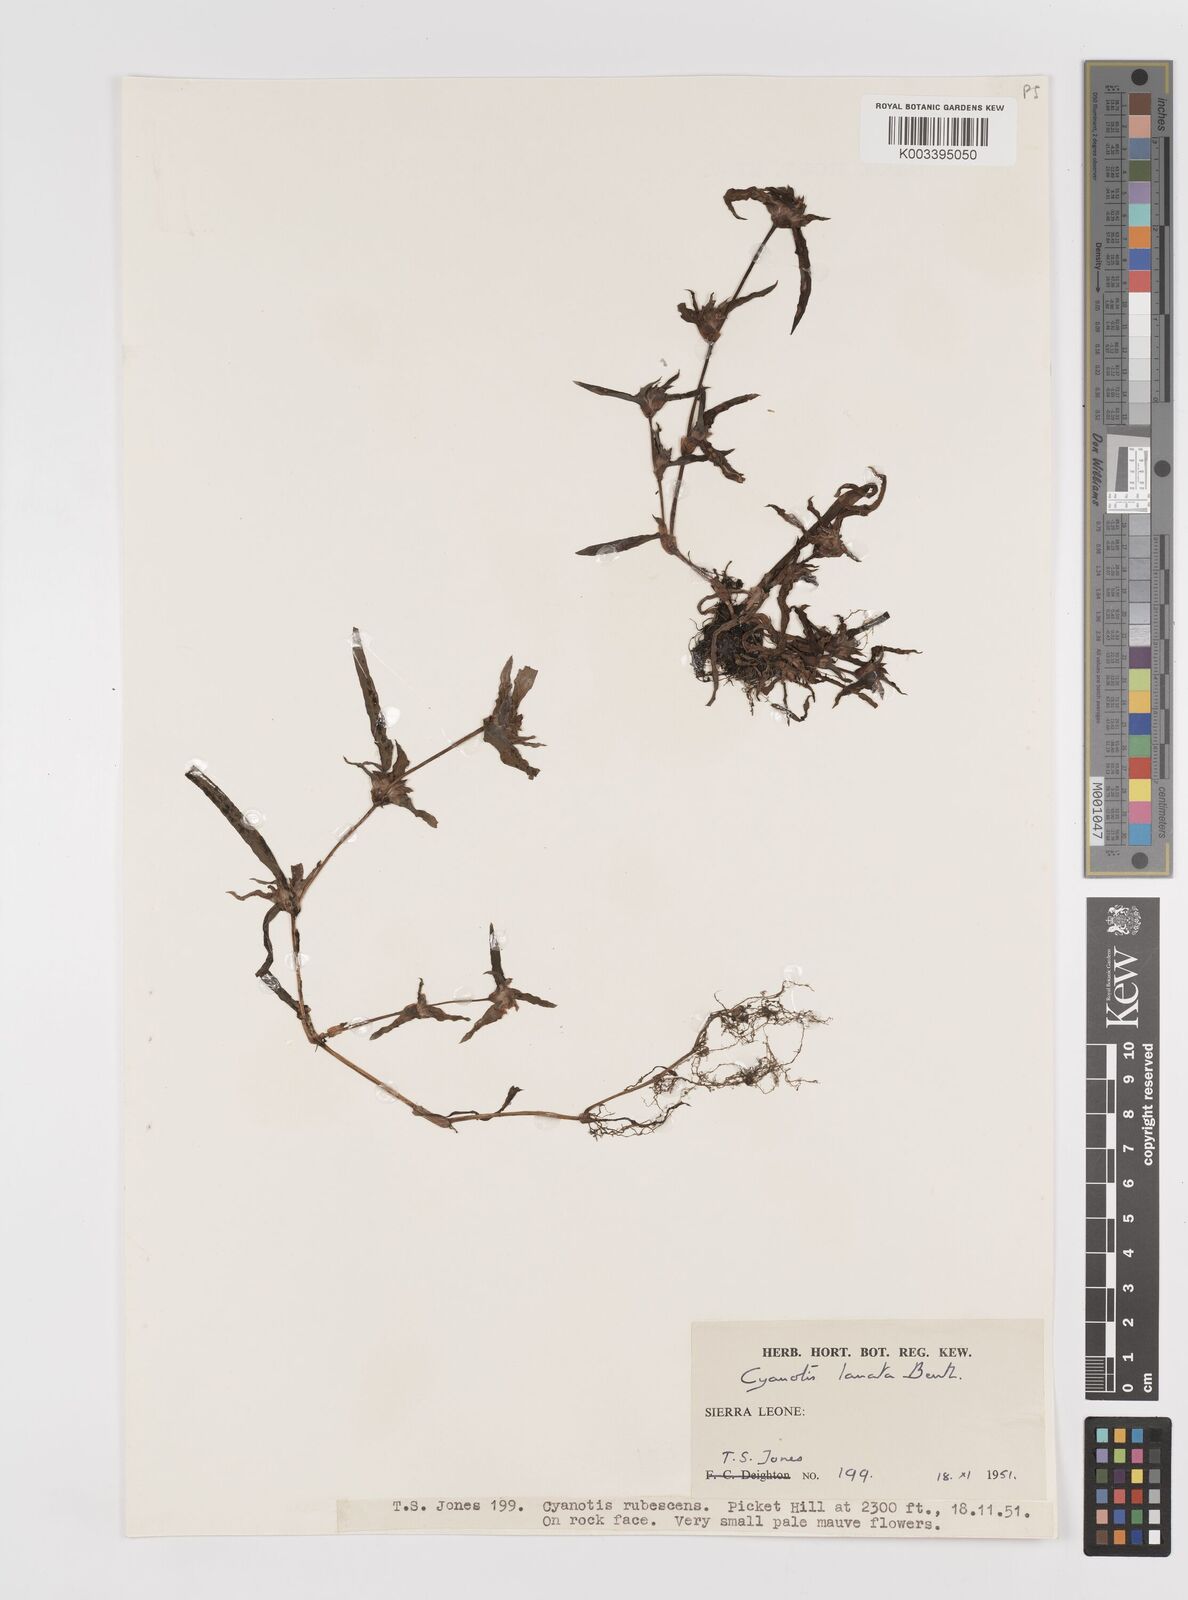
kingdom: Plantae
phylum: Tracheophyta
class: Liliopsida
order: Commelinales
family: Commelinaceae
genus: Cyanotis
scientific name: Cyanotis lanata
